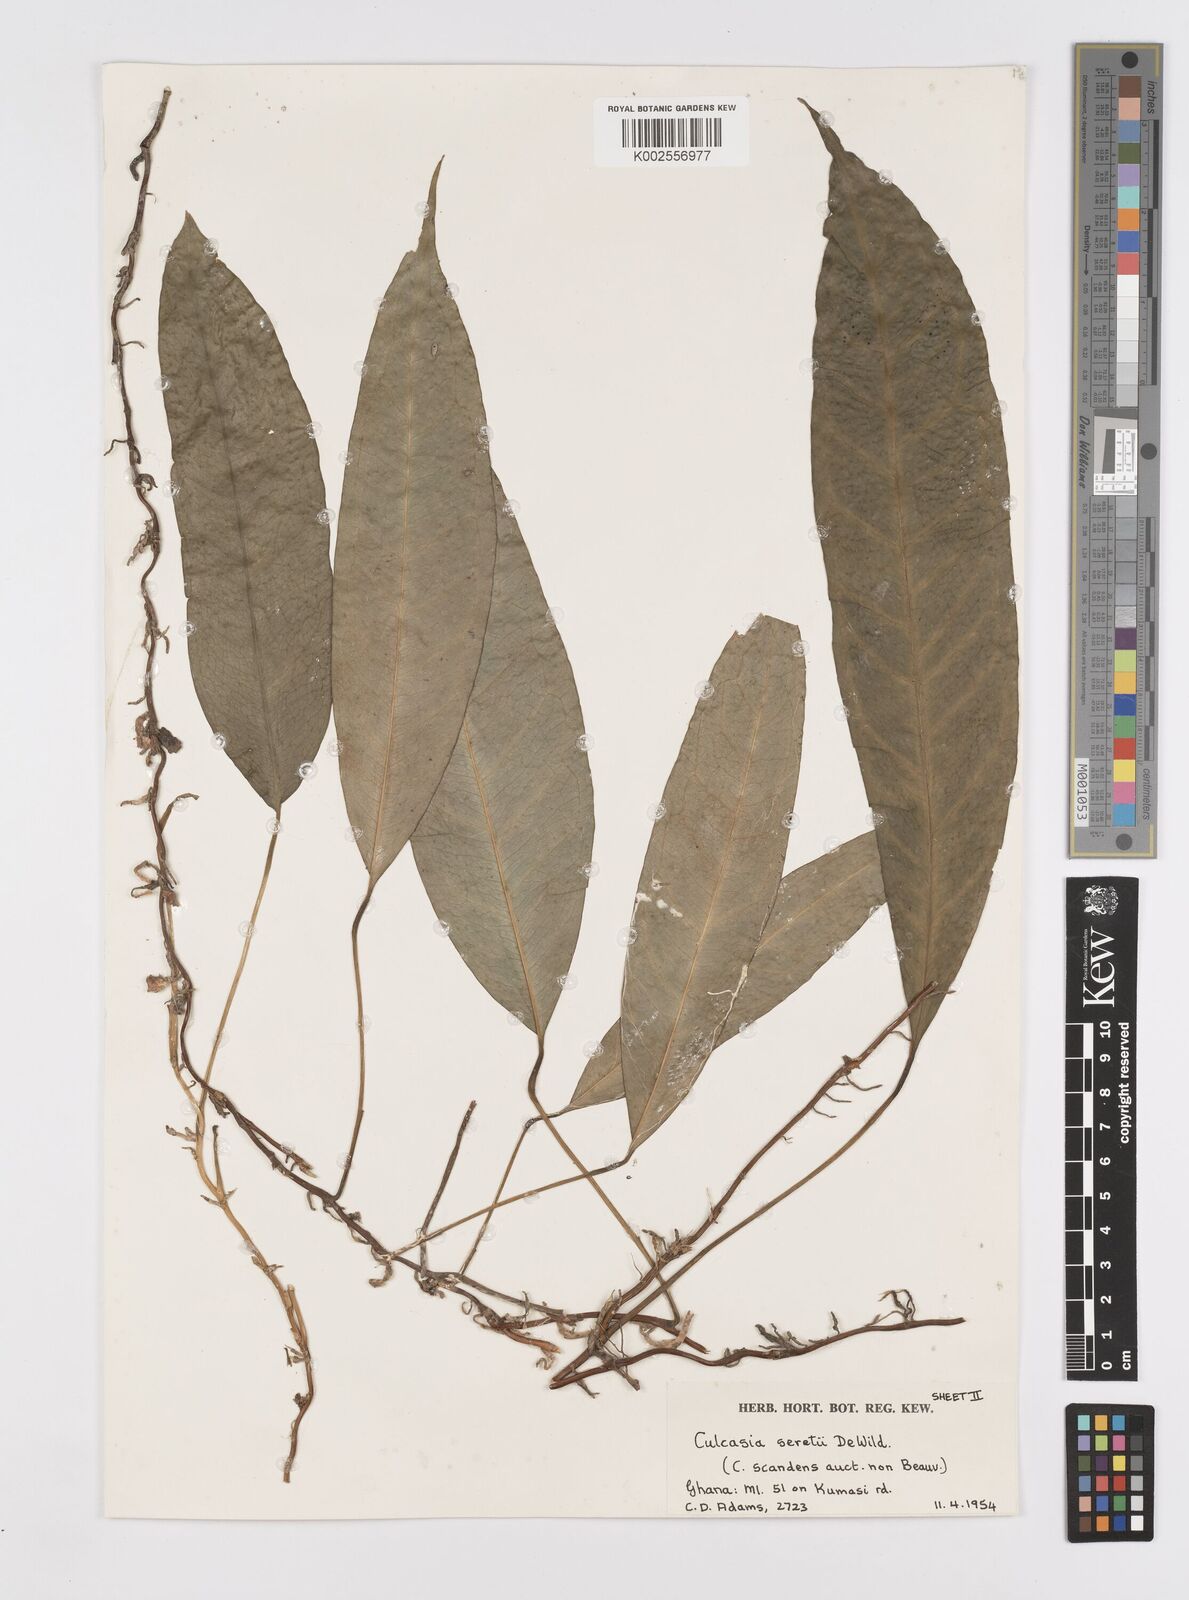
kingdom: Plantae
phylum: Tracheophyta
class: Liliopsida
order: Alismatales
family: Araceae
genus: Culcasia
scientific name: Culcasia seretii
